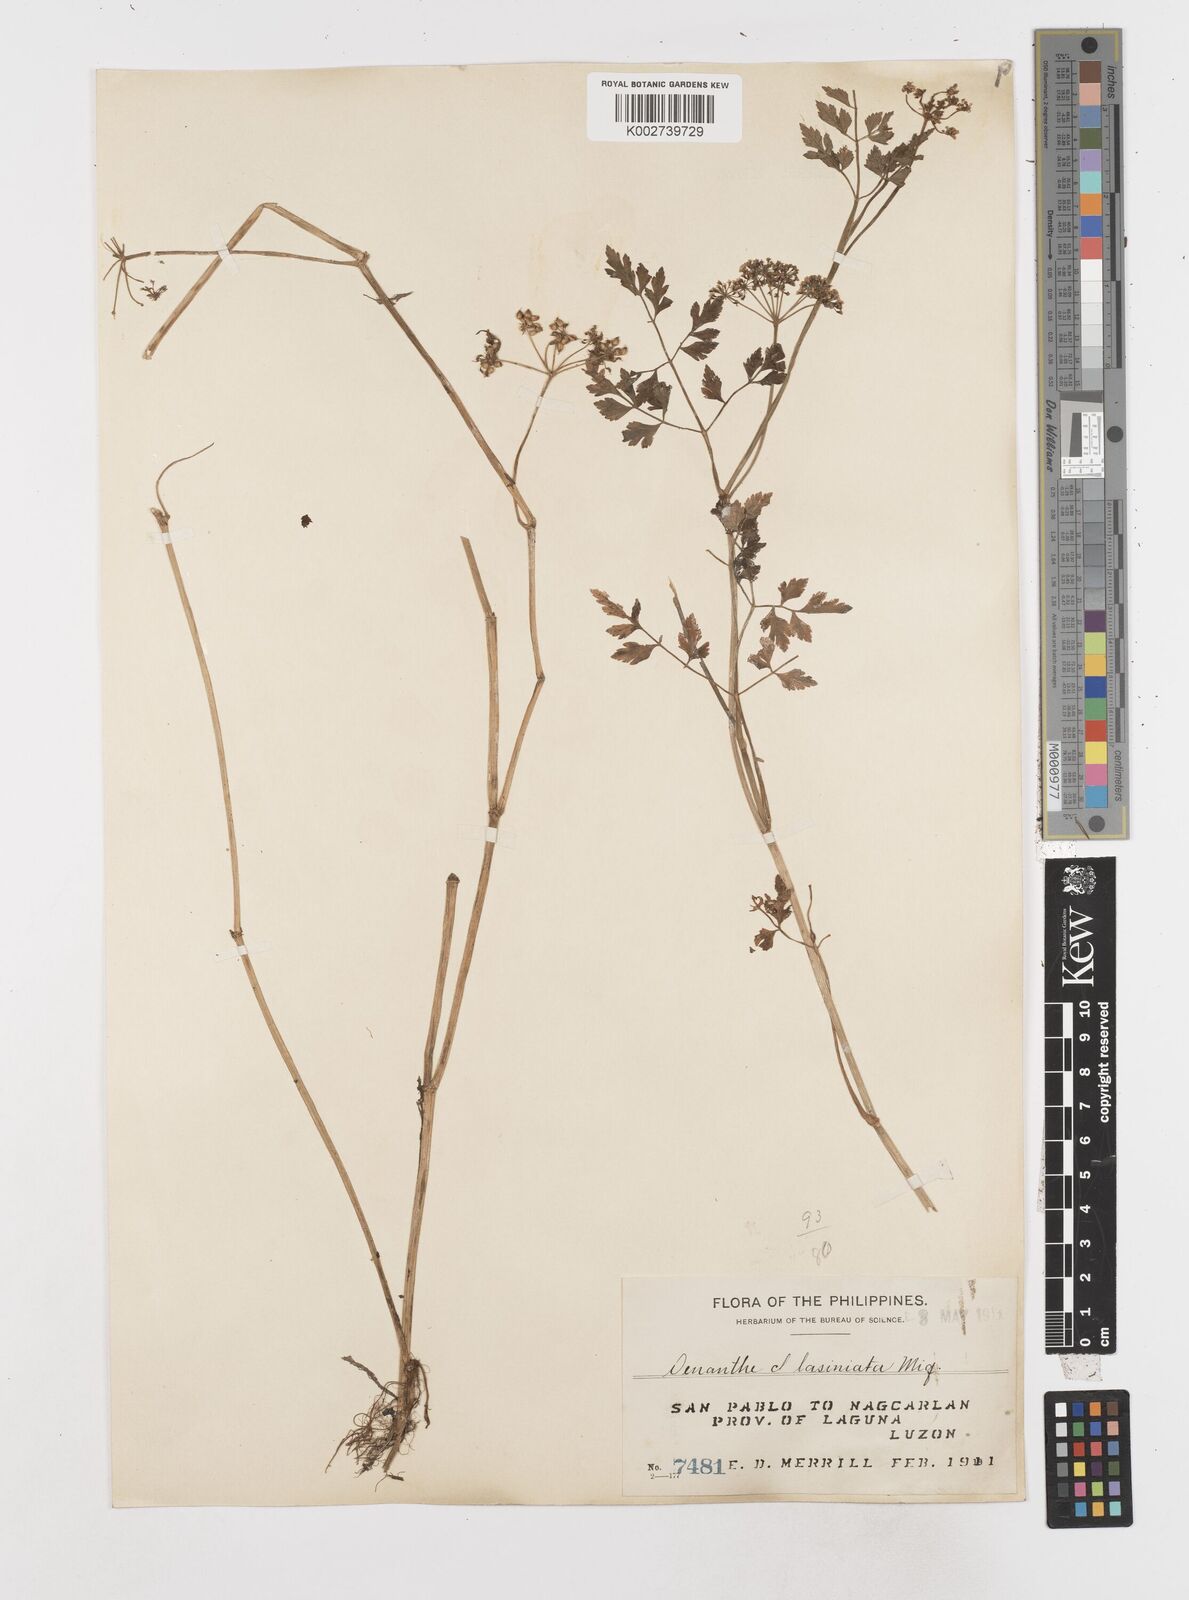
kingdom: Plantae
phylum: Tracheophyta
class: Magnoliopsida
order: Apiales
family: Apiaceae
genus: Oenanthe
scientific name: Oenanthe javanica
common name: Java water-dropwort
